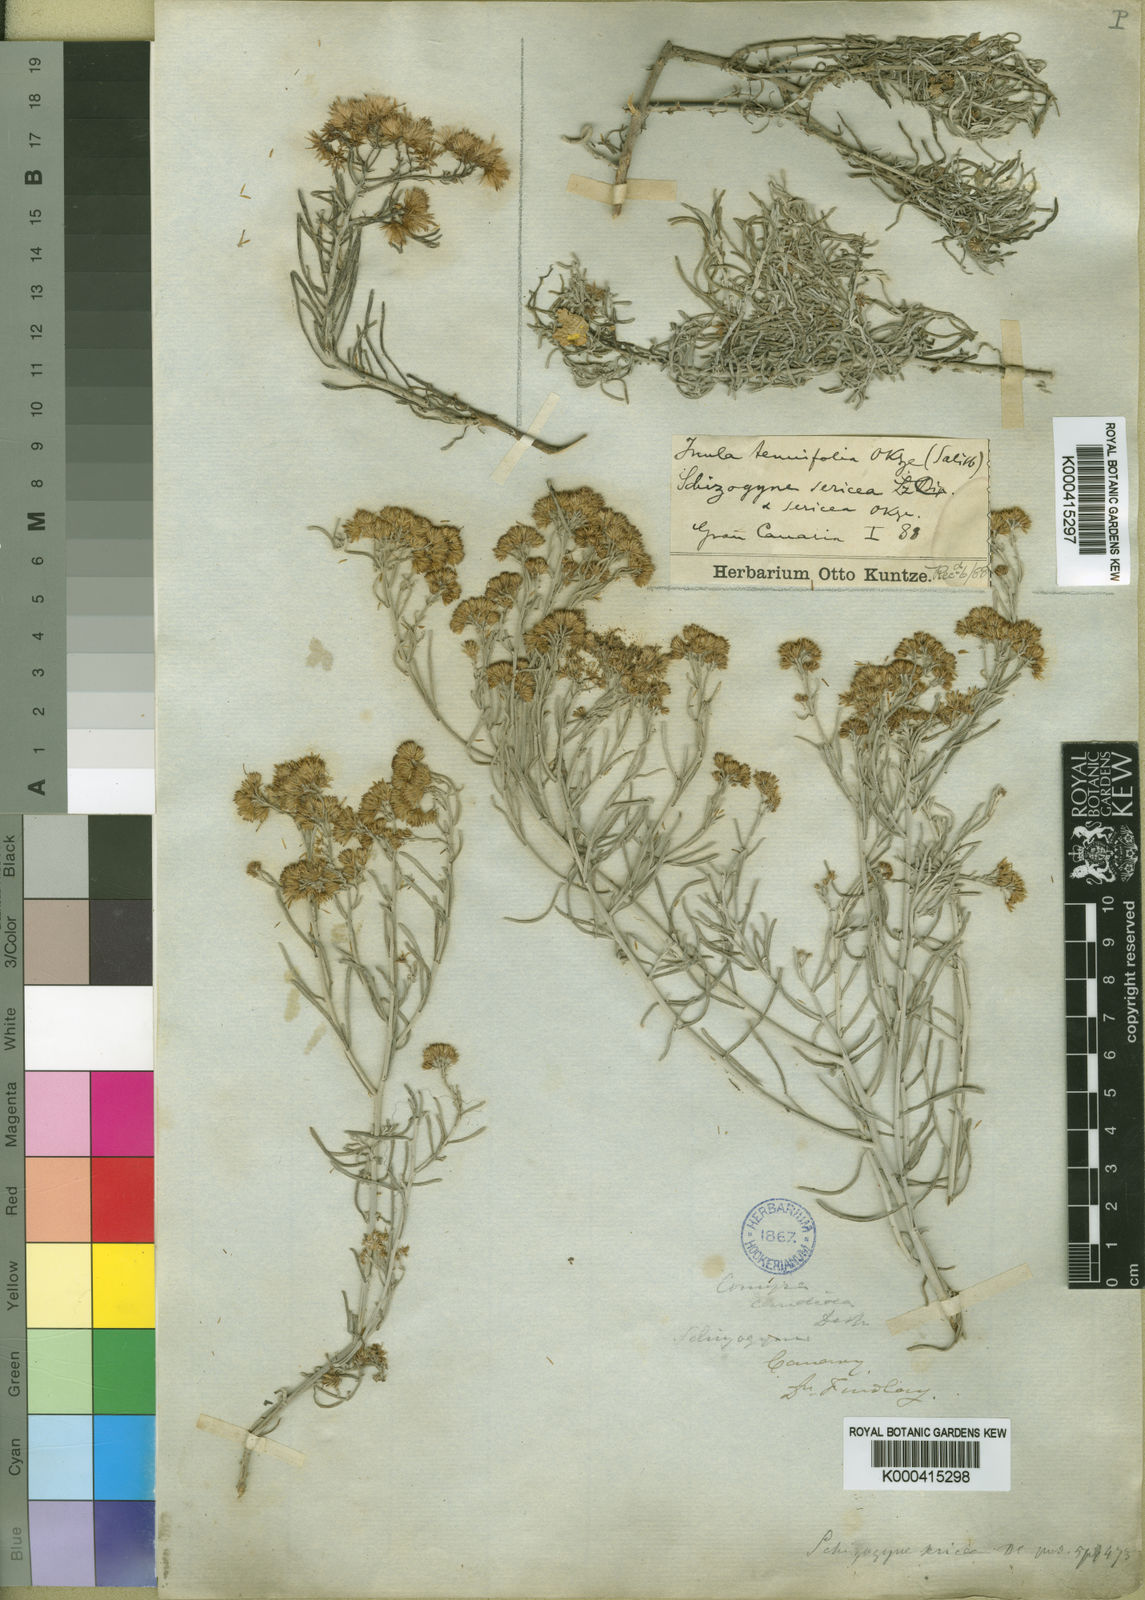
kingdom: Plantae
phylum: Tracheophyta
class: Magnoliopsida
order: Asterales
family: Asteraceae
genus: Schizogyne
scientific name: Schizogyne sericea
